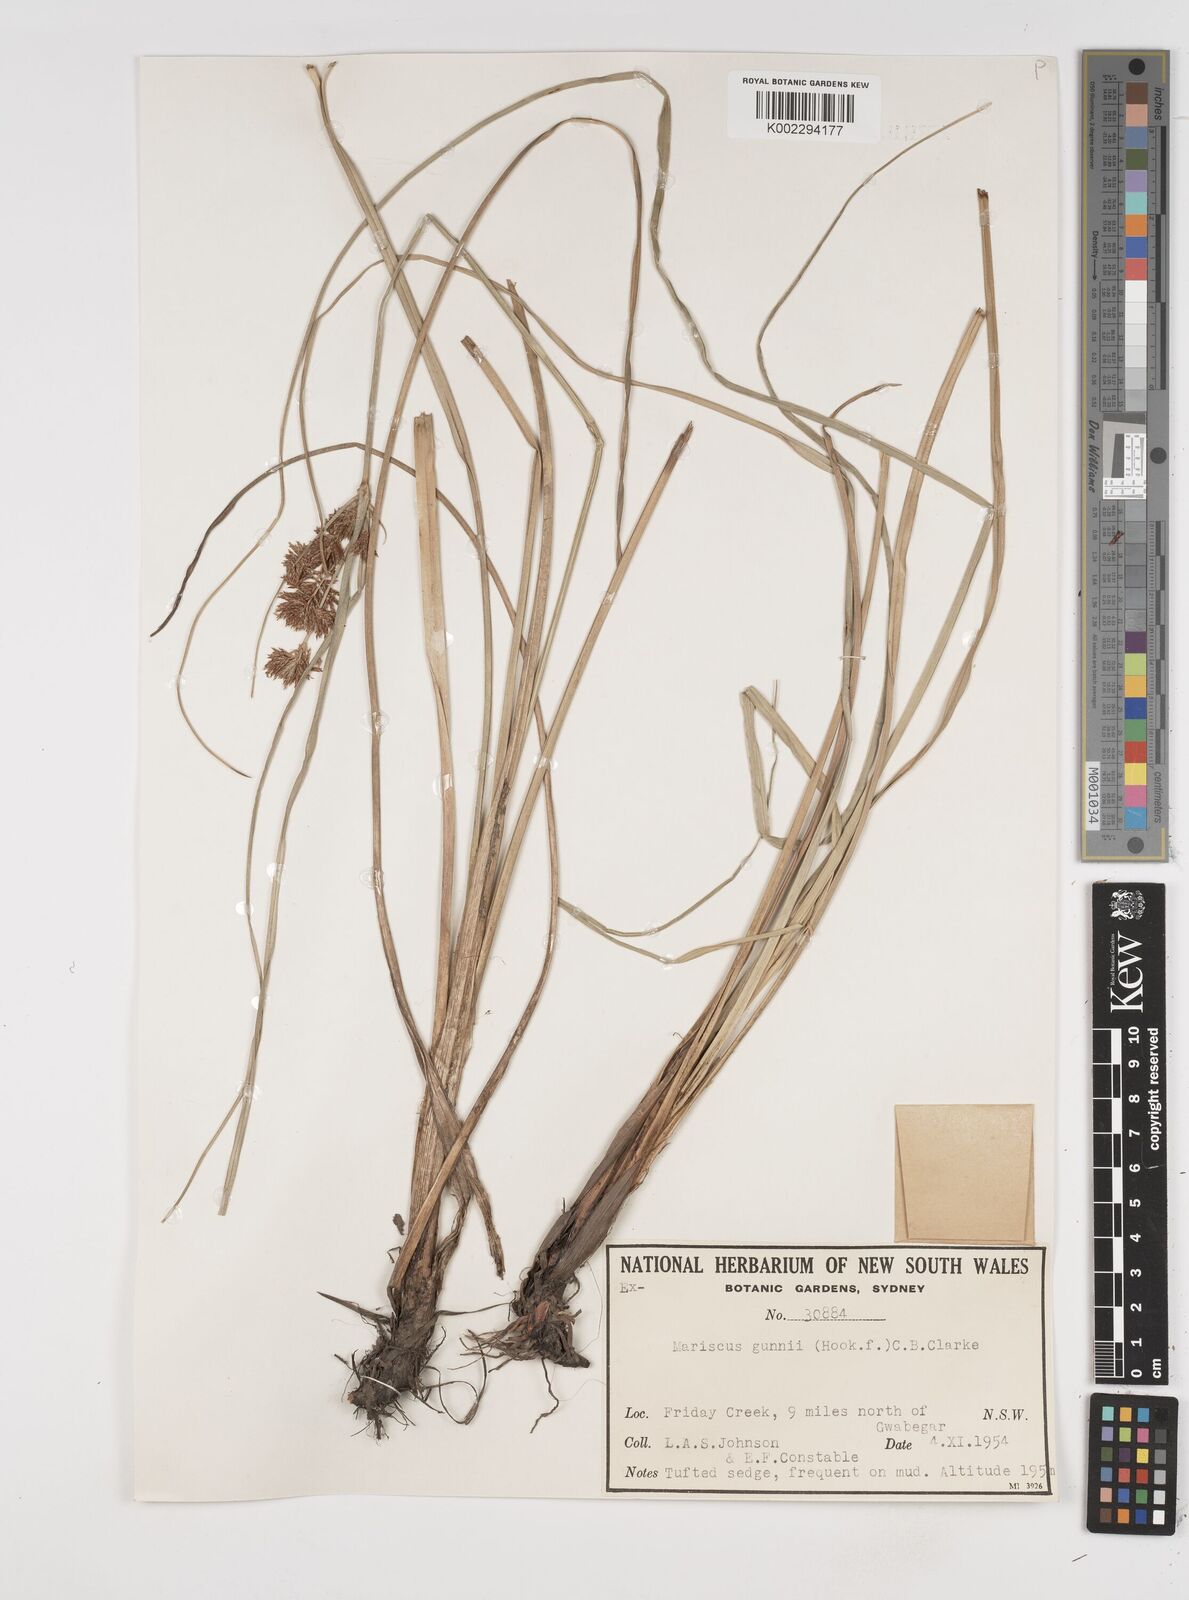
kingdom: Plantae
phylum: Tracheophyta
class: Liliopsida
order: Poales
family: Cyperaceae
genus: Cyperus
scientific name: Cyperus gunnii
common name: Flecked flat-sedge
